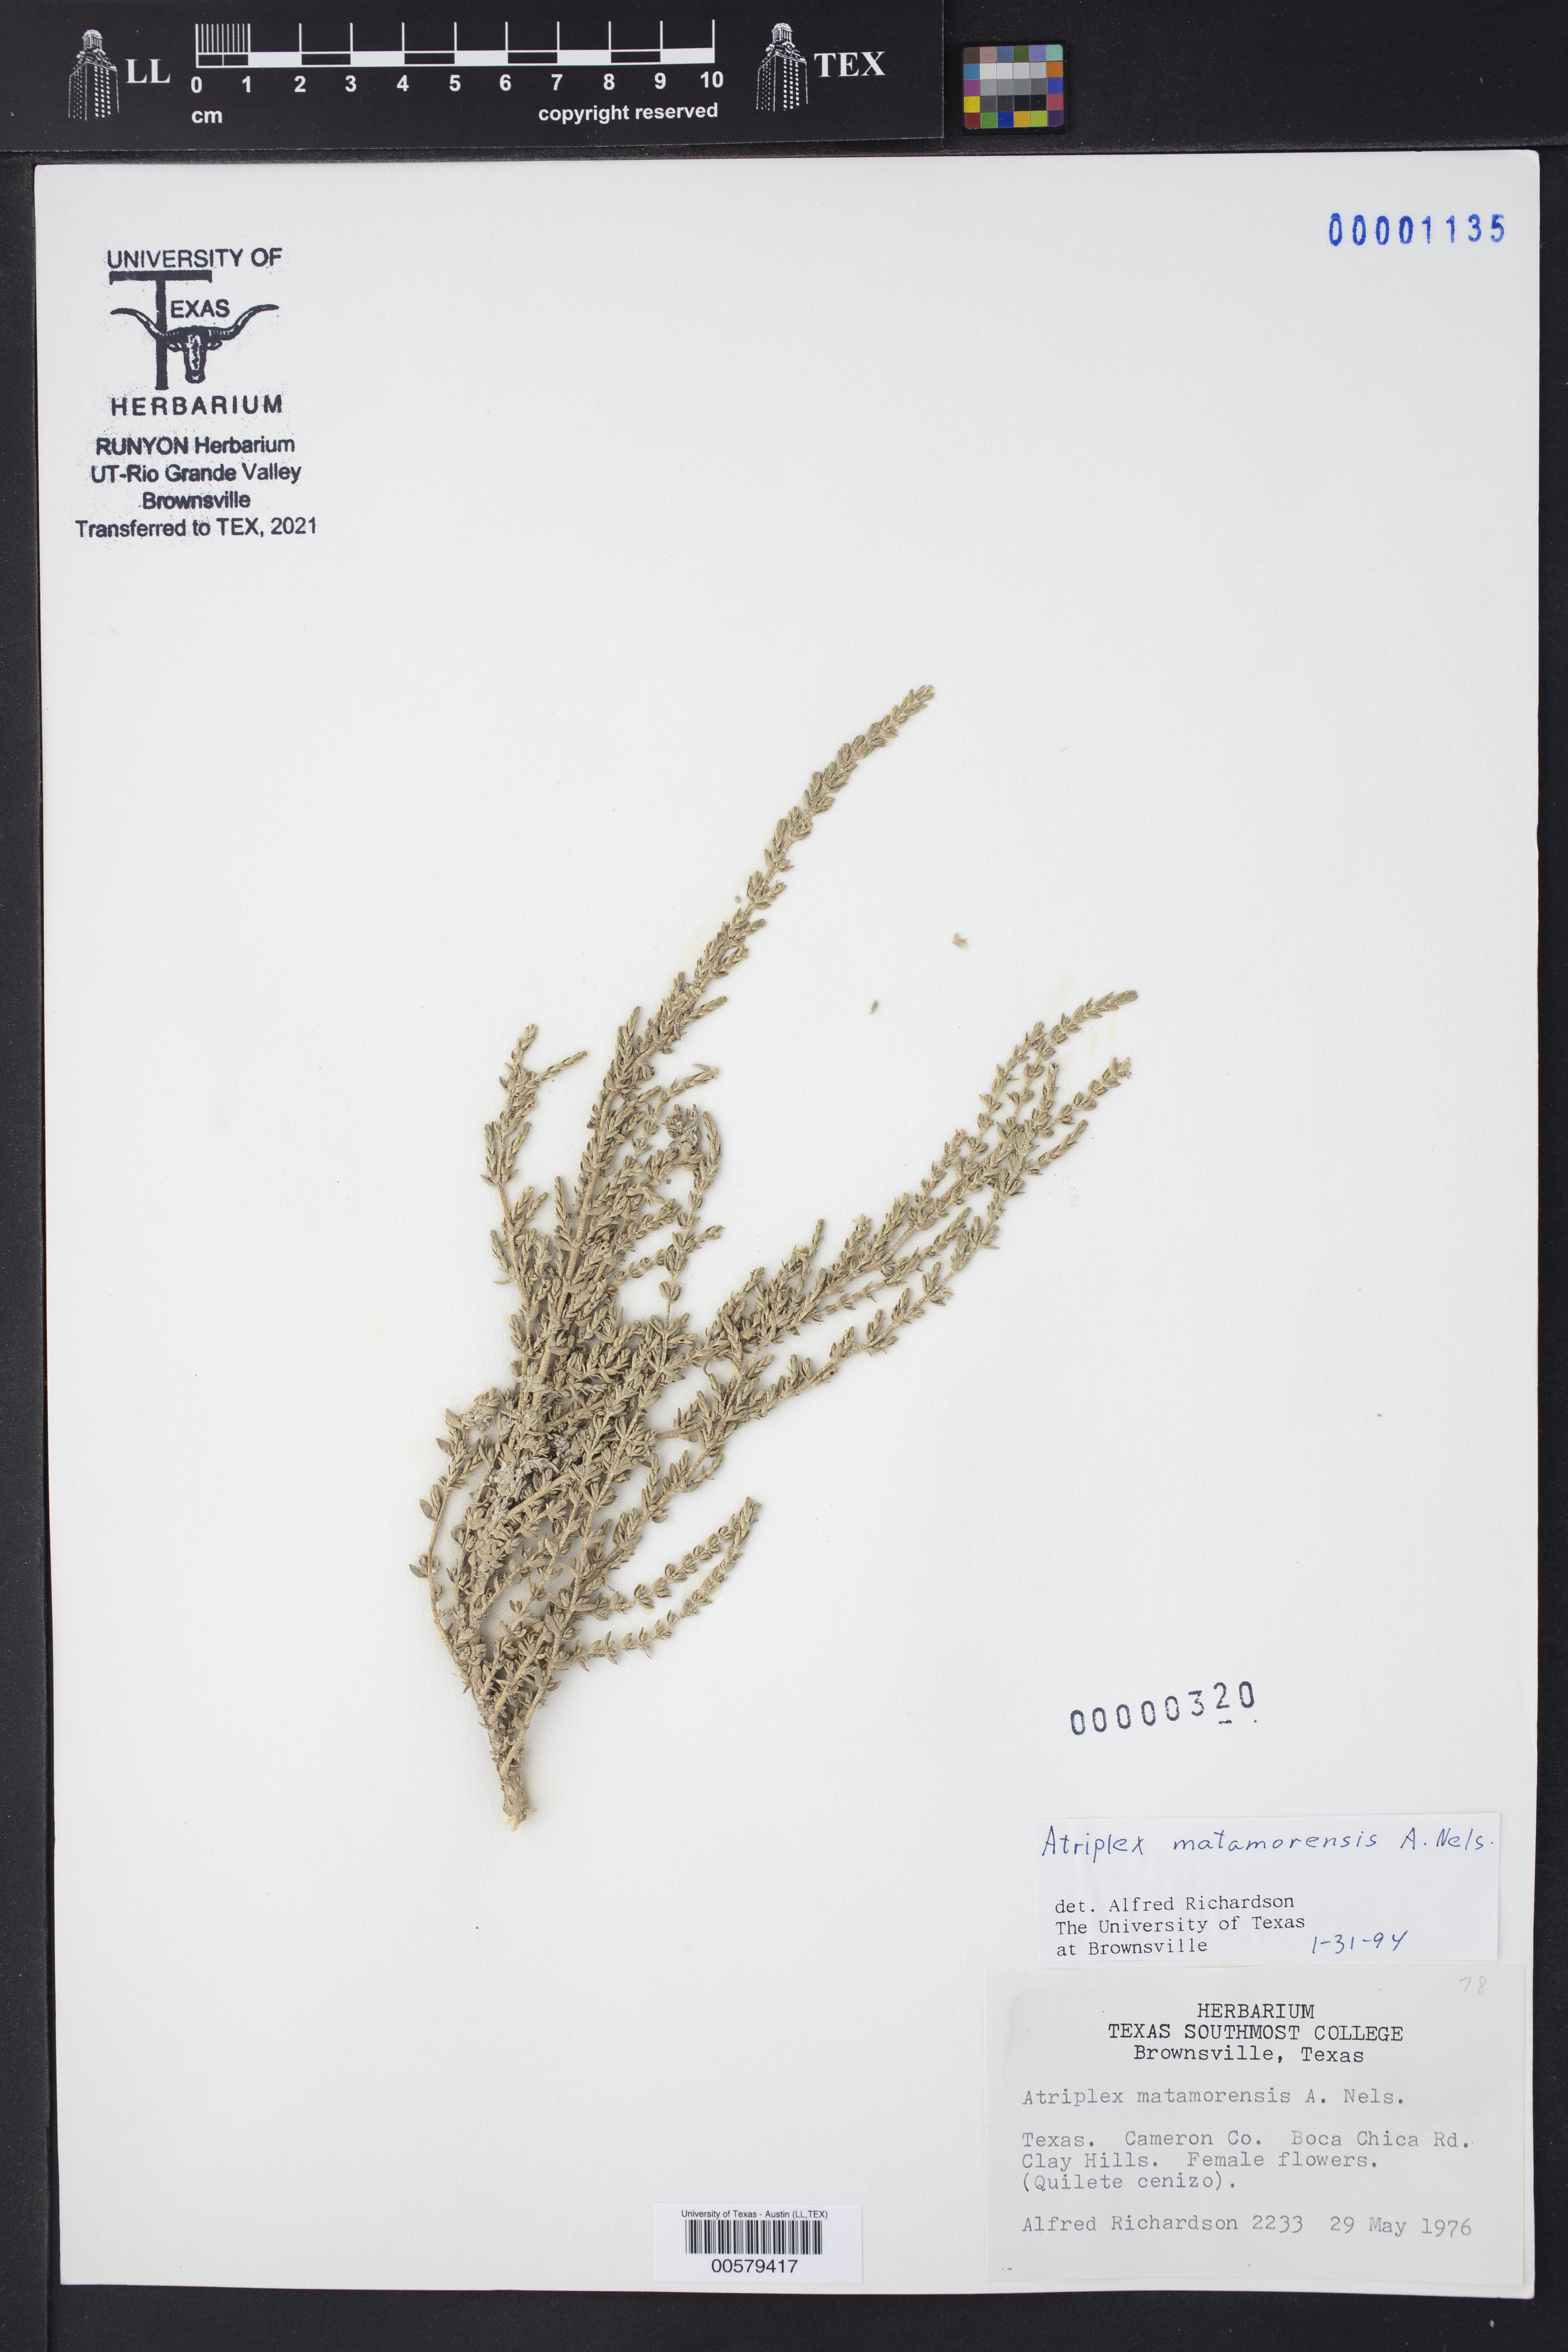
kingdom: Plantae
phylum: Tracheophyta
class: Magnoliopsida
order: Caryophyllales
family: Amaranthaceae
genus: Atriplex
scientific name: Atriplex matamorensis
